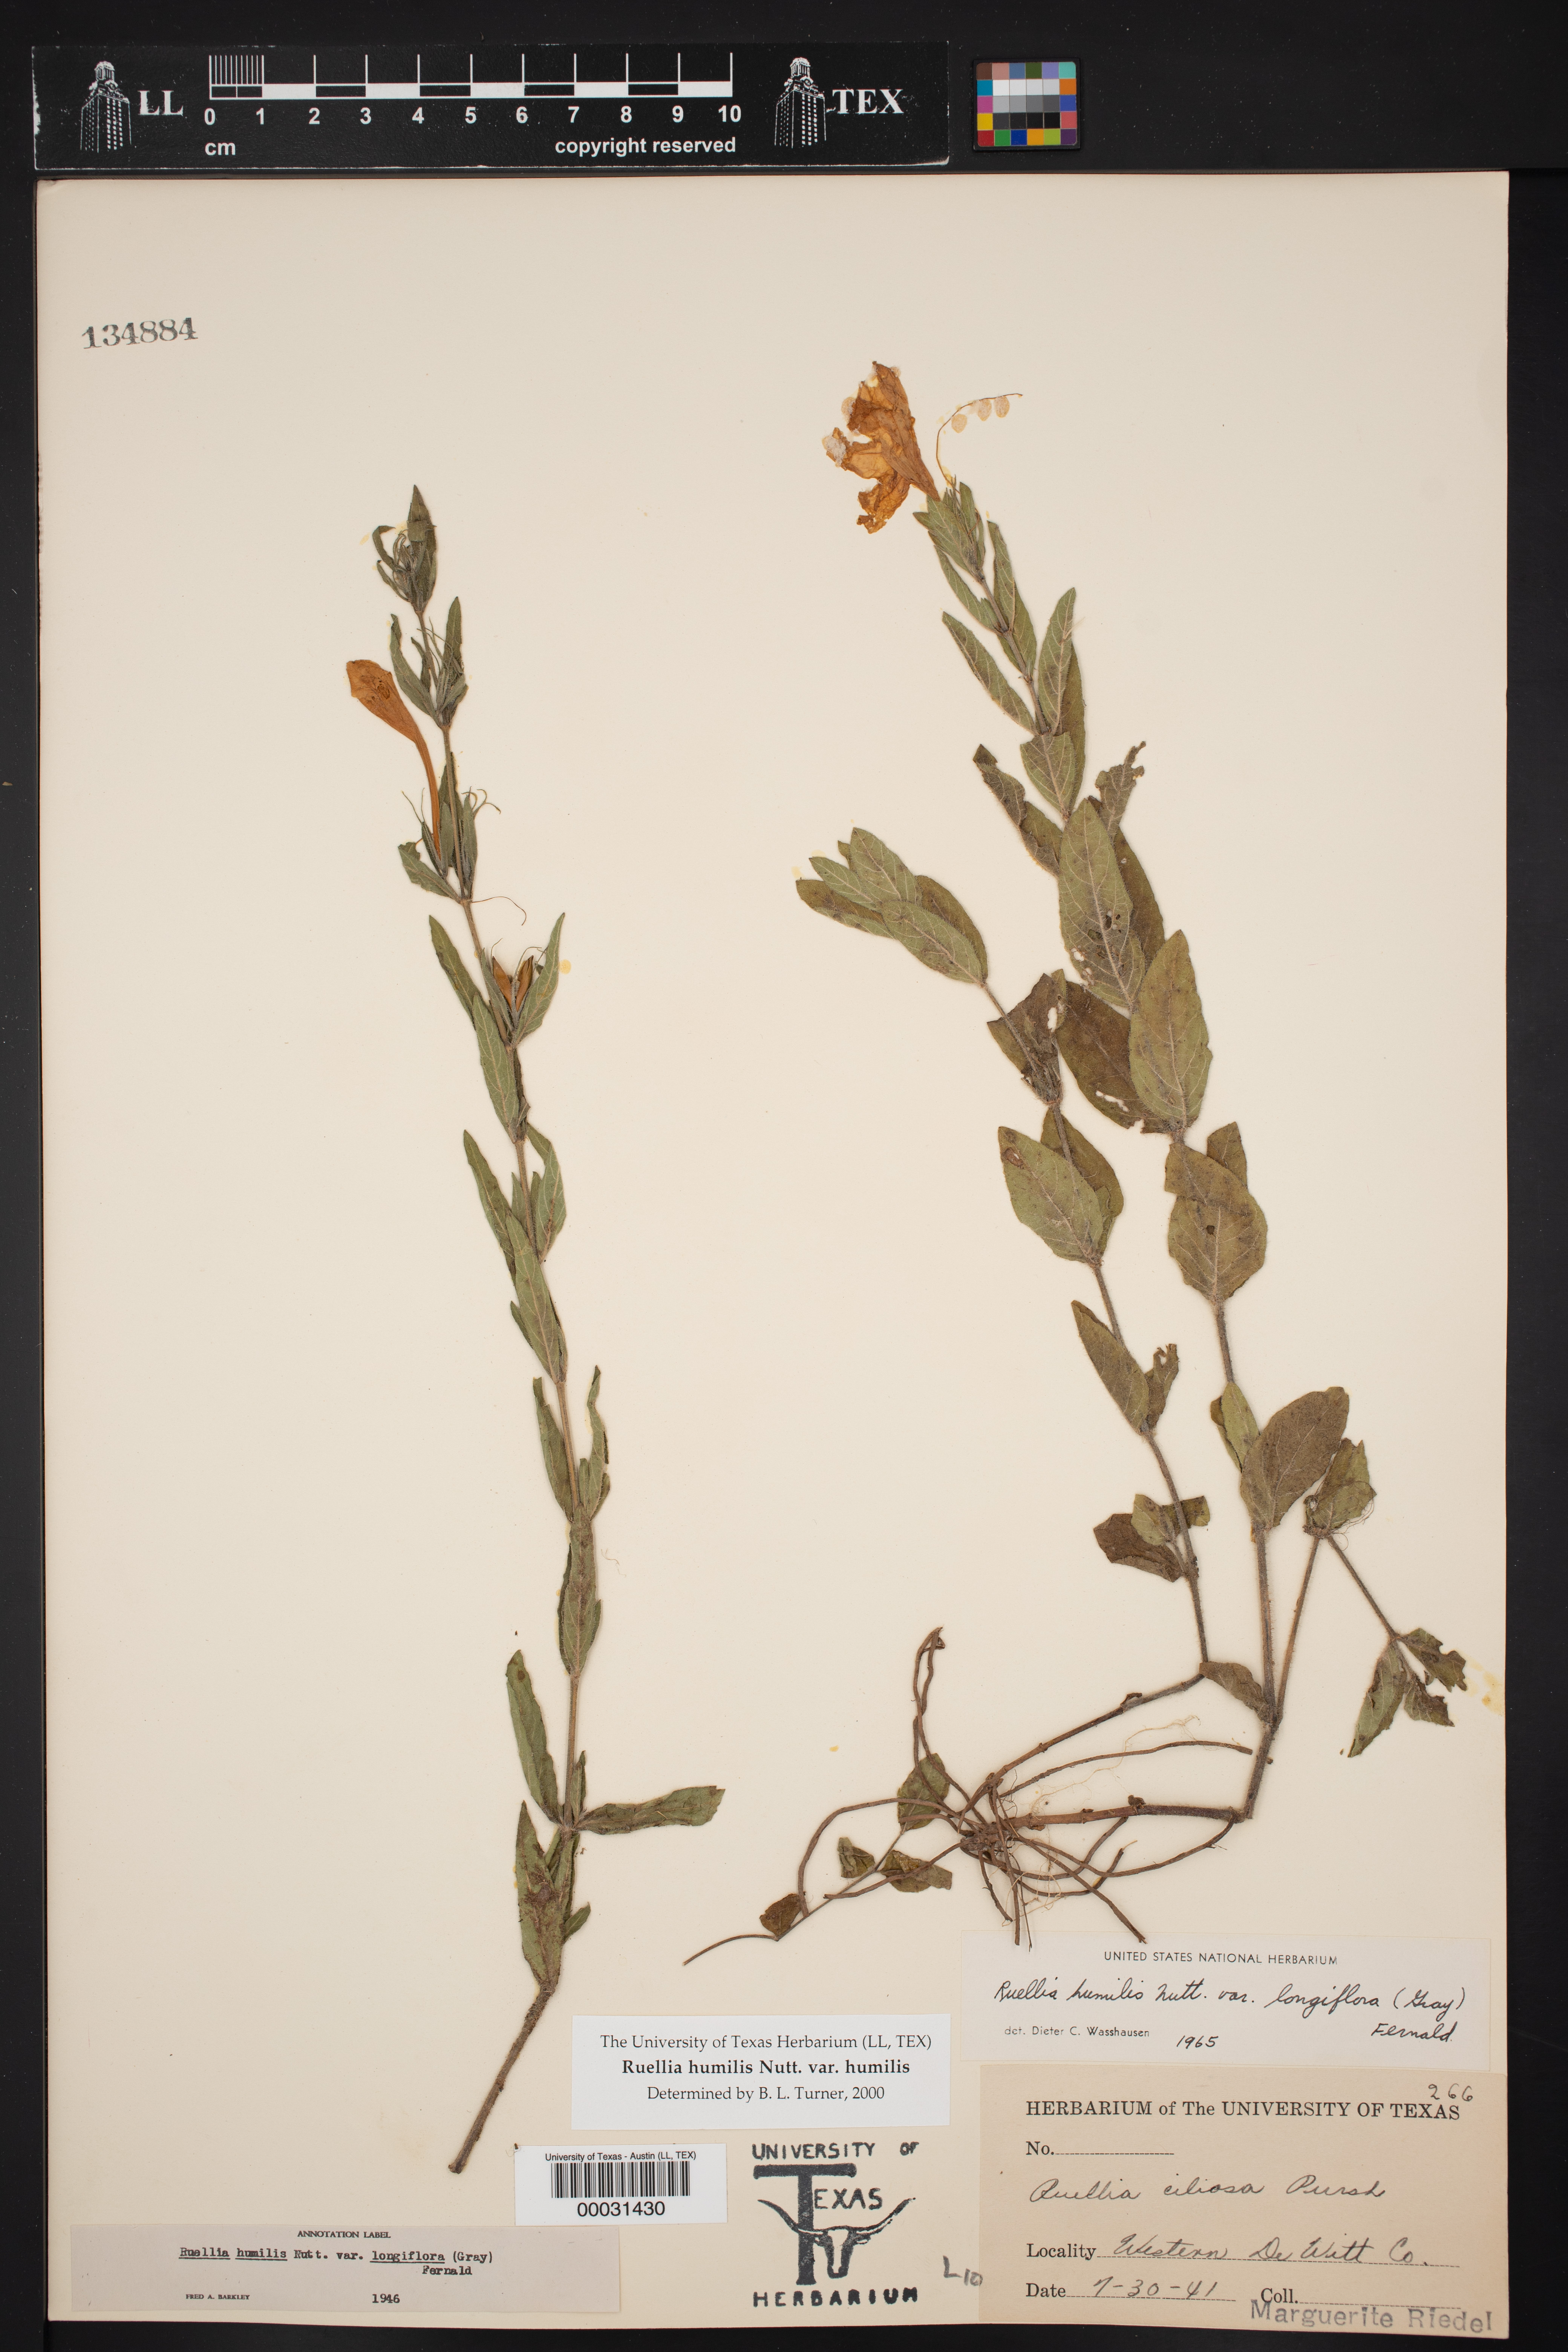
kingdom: Plantae
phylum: Tracheophyta
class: Magnoliopsida
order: Lamiales
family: Acanthaceae
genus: Ruellia
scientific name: Ruellia humilis
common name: Fringe-leaf ruellia
